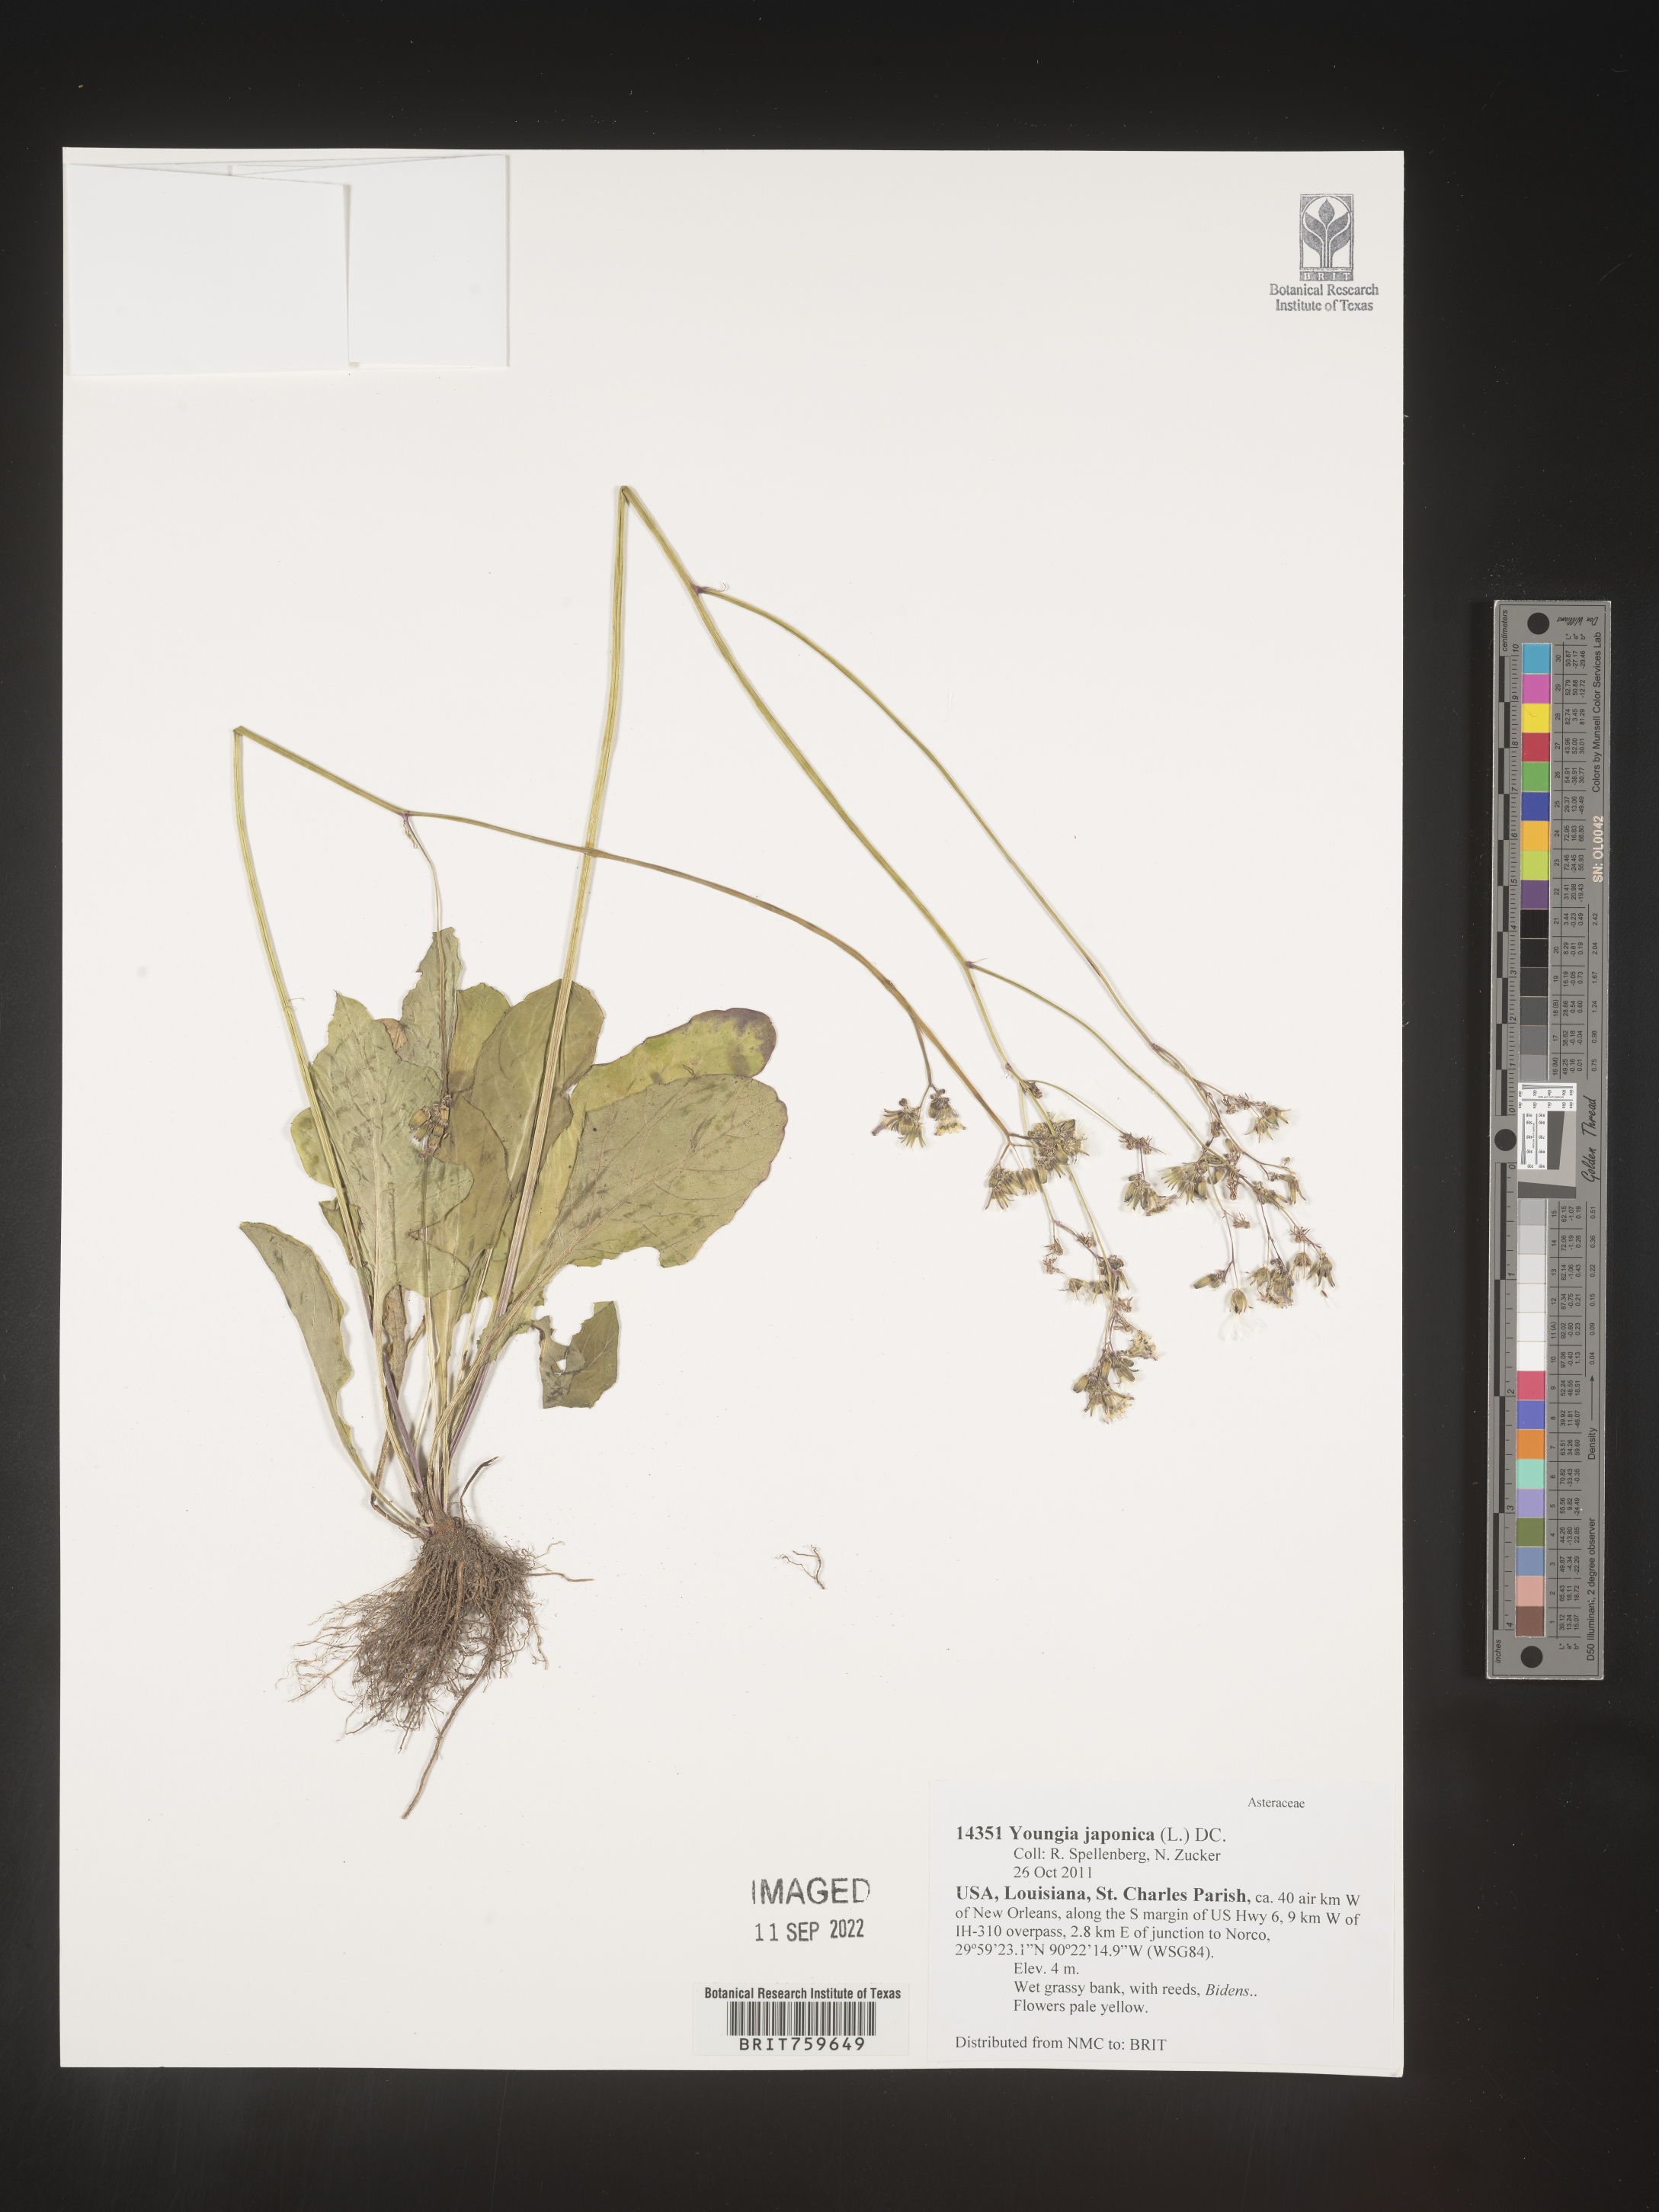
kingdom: Plantae
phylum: Tracheophyta
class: Magnoliopsida
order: Asterales
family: Asteraceae
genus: Youngia
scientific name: Youngia japonica
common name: Oriental false hawksbeard
